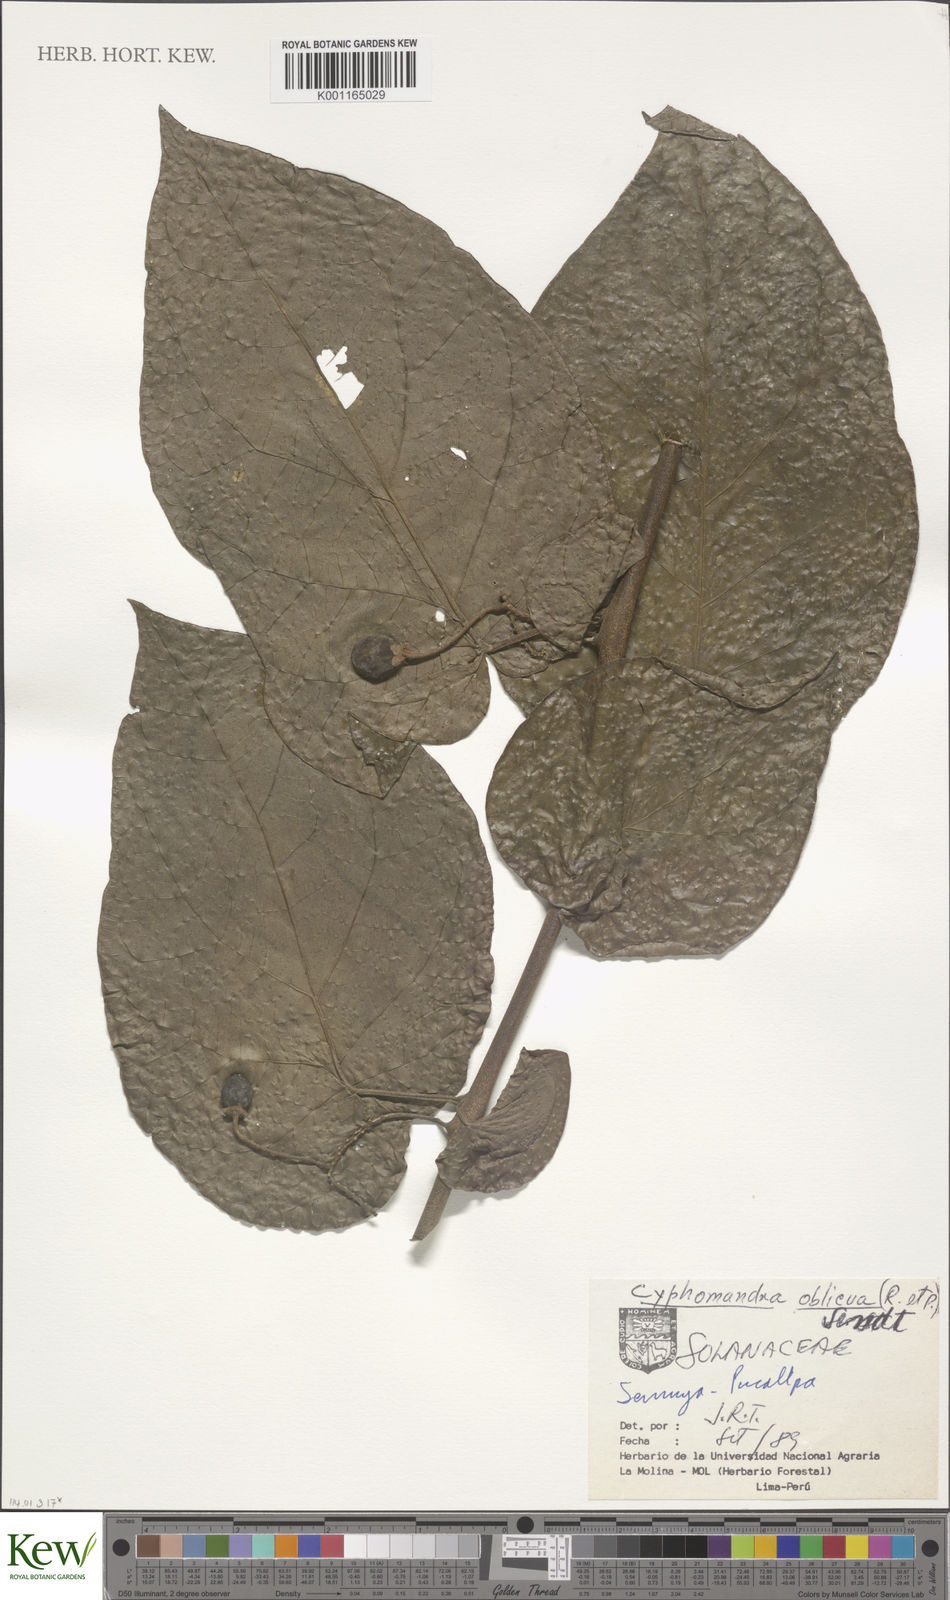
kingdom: Plantae
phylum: Tracheophyta
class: Magnoliopsida
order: Solanales
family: Solanaceae
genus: Solanum
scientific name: Solanum obliquum
